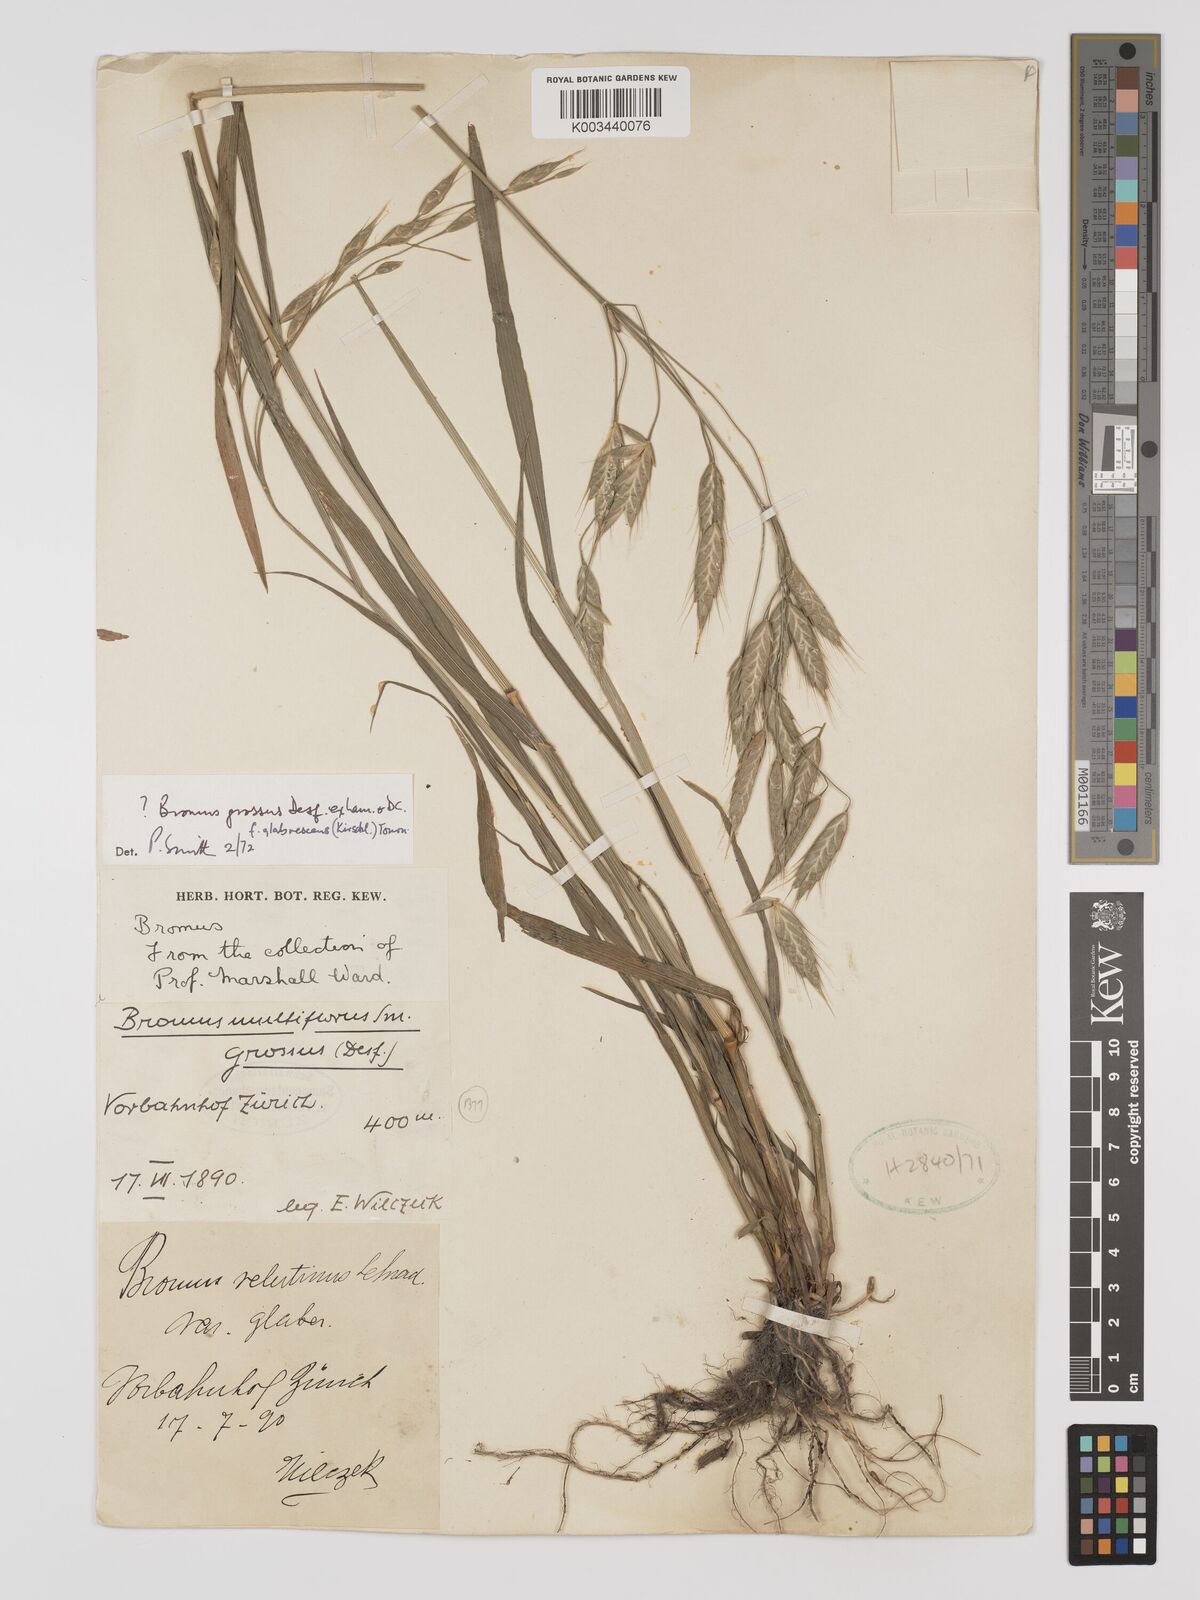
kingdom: Plantae
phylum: Tracheophyta
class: Liliopsida
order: Poales
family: Poaceae
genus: Bromus
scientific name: Bromus grossus
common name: Whiskered brome
